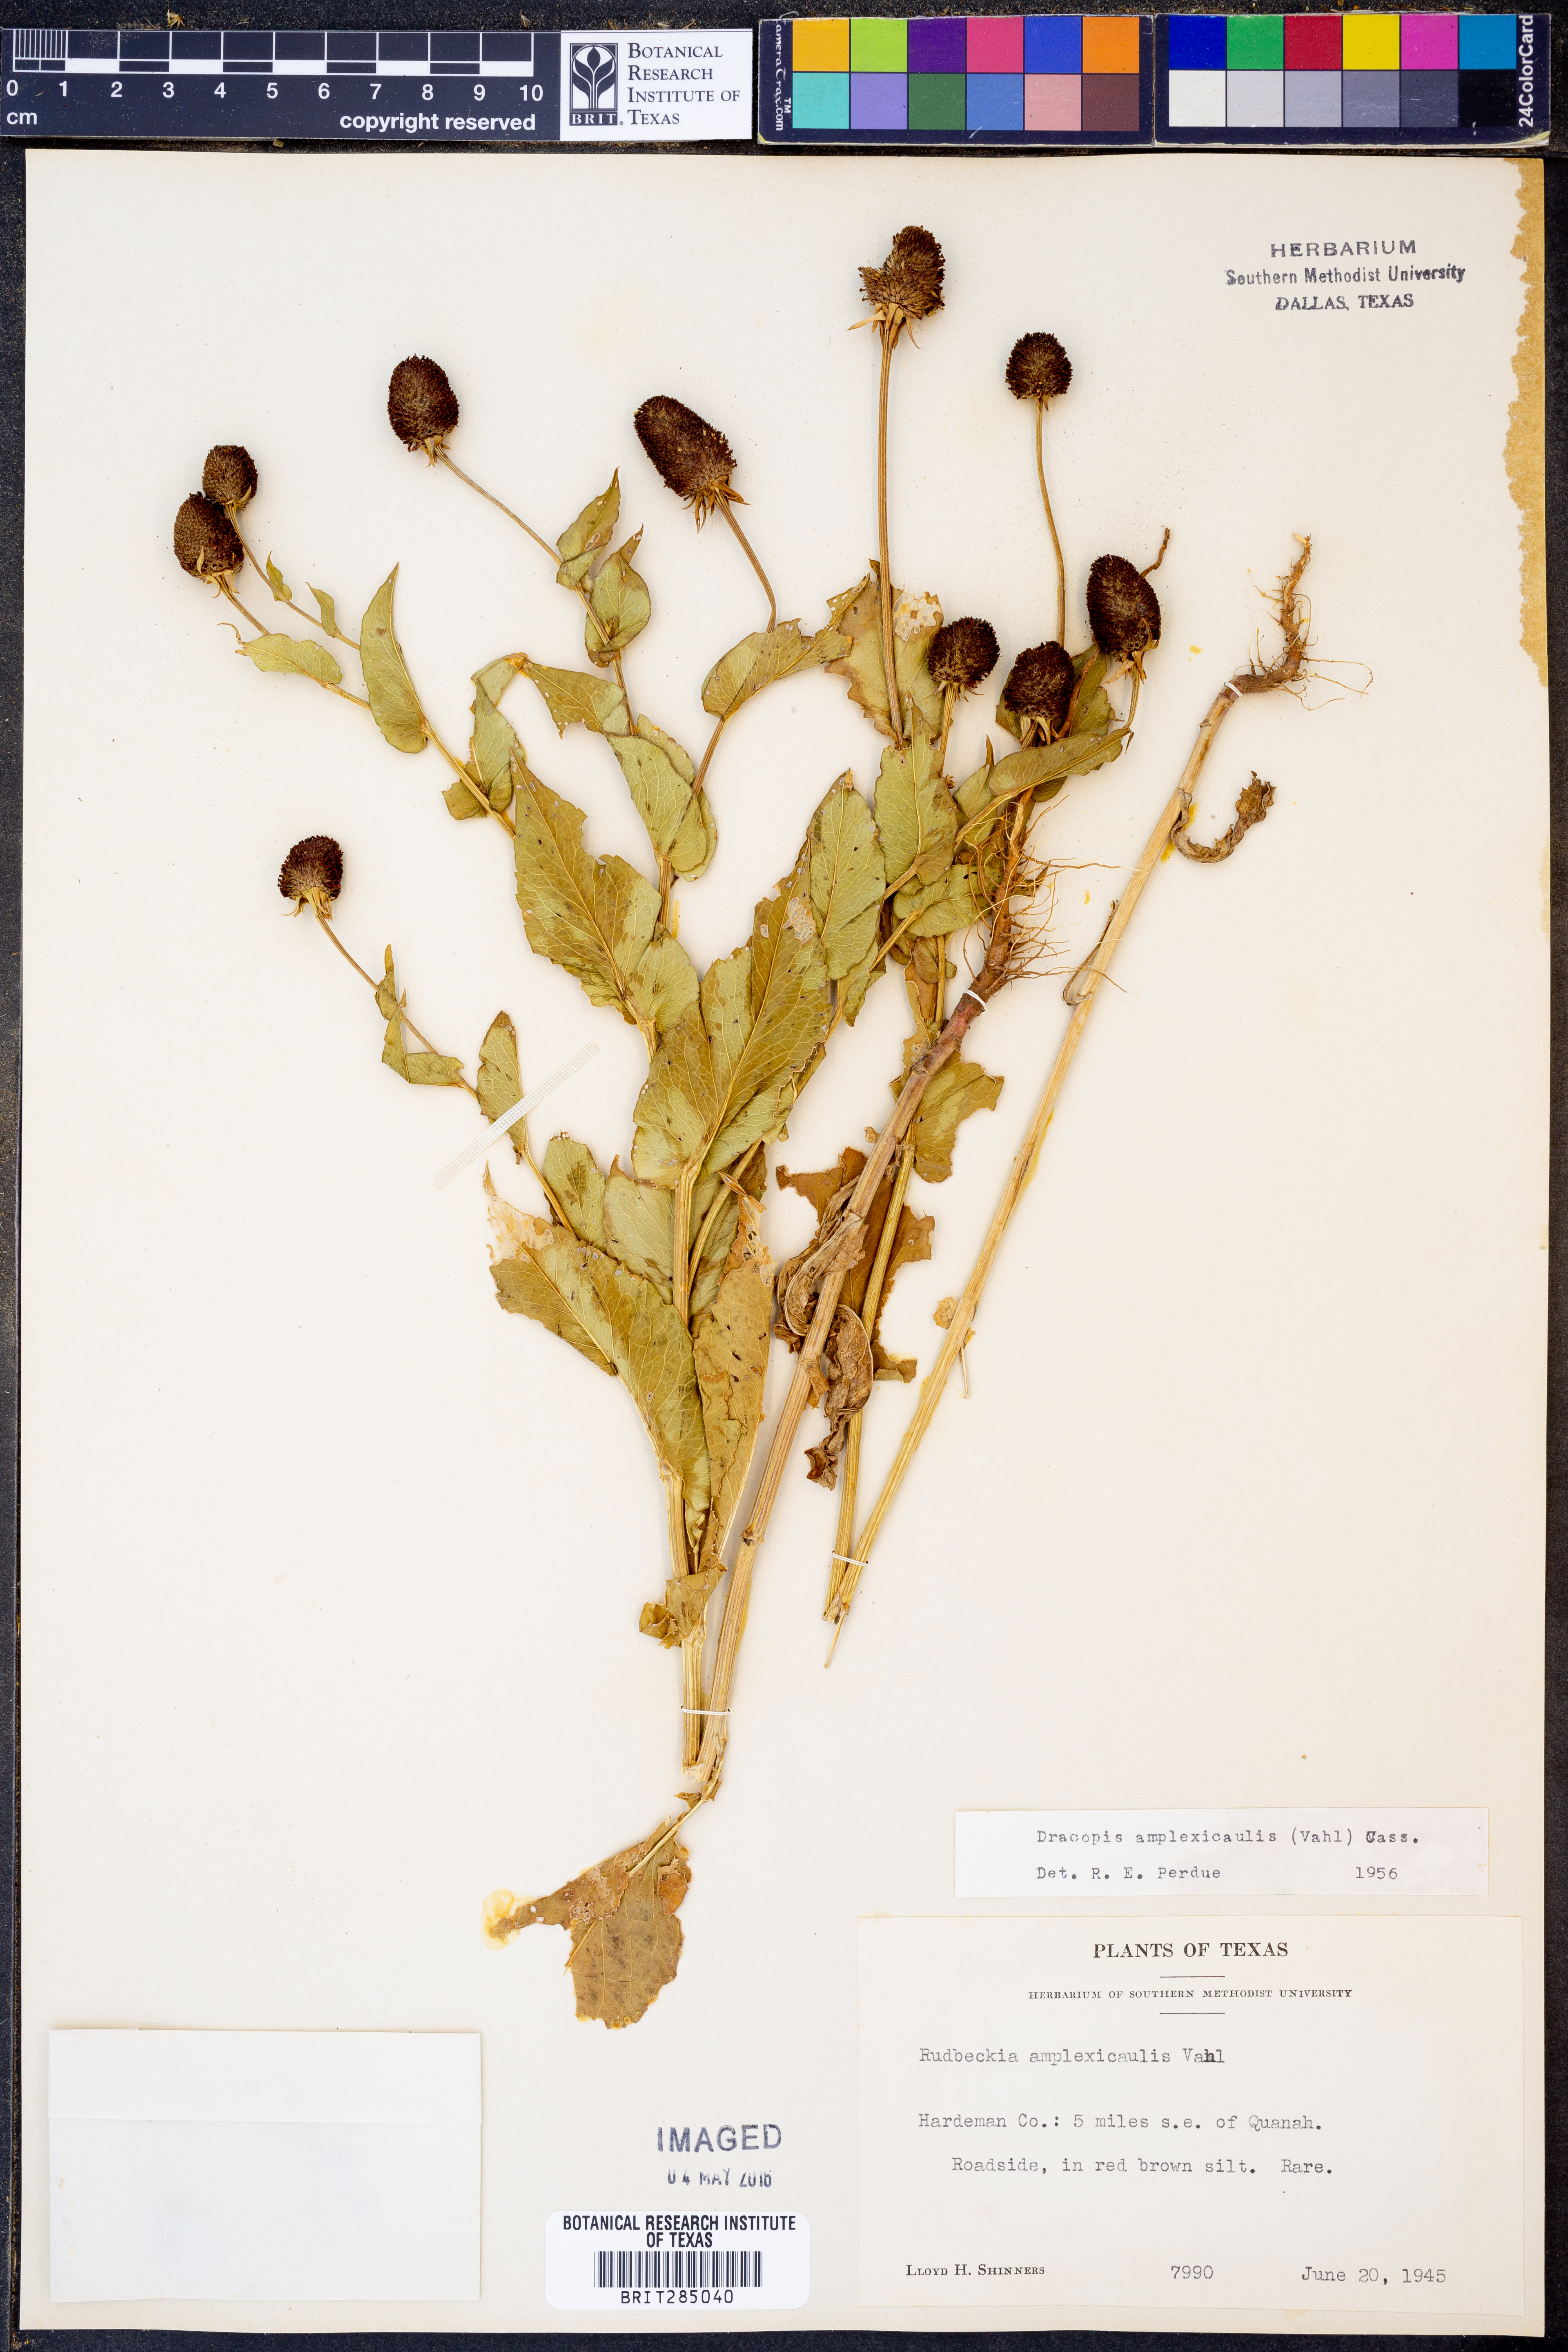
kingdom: Plantae
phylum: Tracheophyta
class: Magnoliopsida
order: Asterales
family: Asteraceae
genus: Rudbeckia
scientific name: Rudbeckia amplexicaulis
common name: Clasping-leaf coneflower
